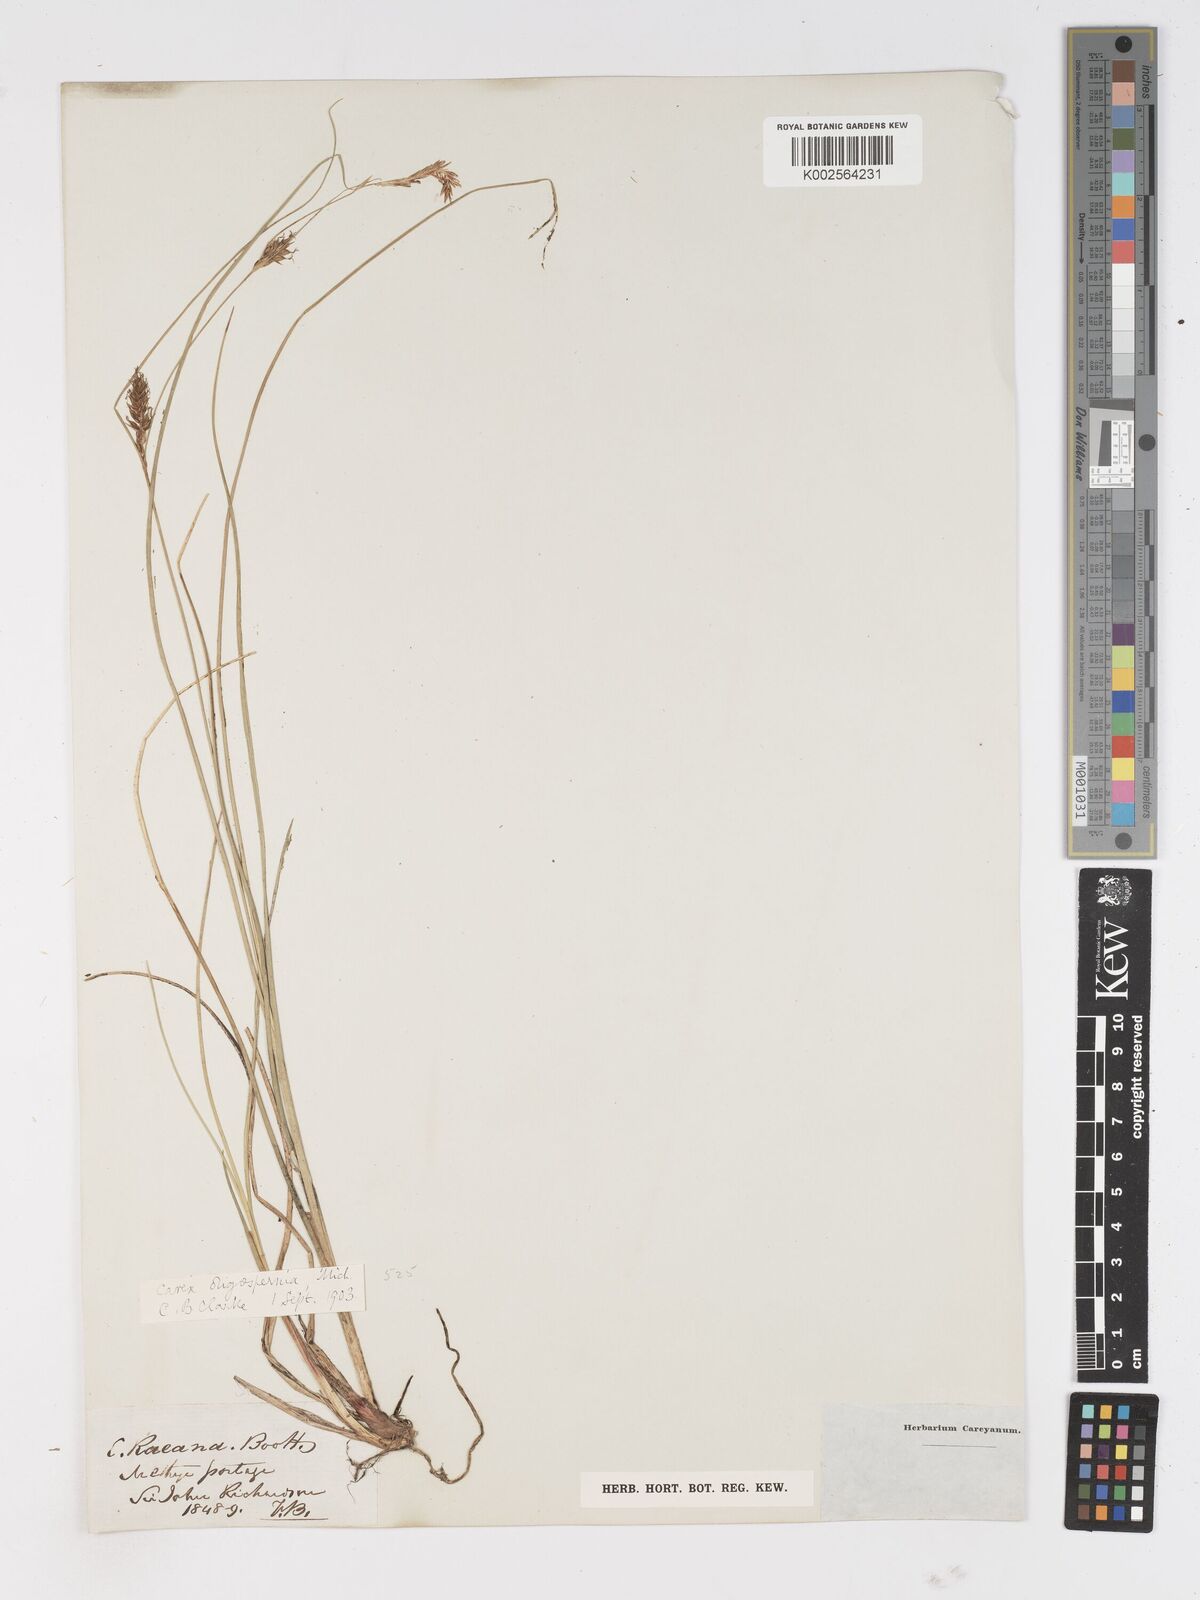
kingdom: Plantae
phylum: Tracheophyta
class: Liliopsida
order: Poales
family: Cyperaceae
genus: Carex
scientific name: Carex oligosperma
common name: Few-seed sedge
